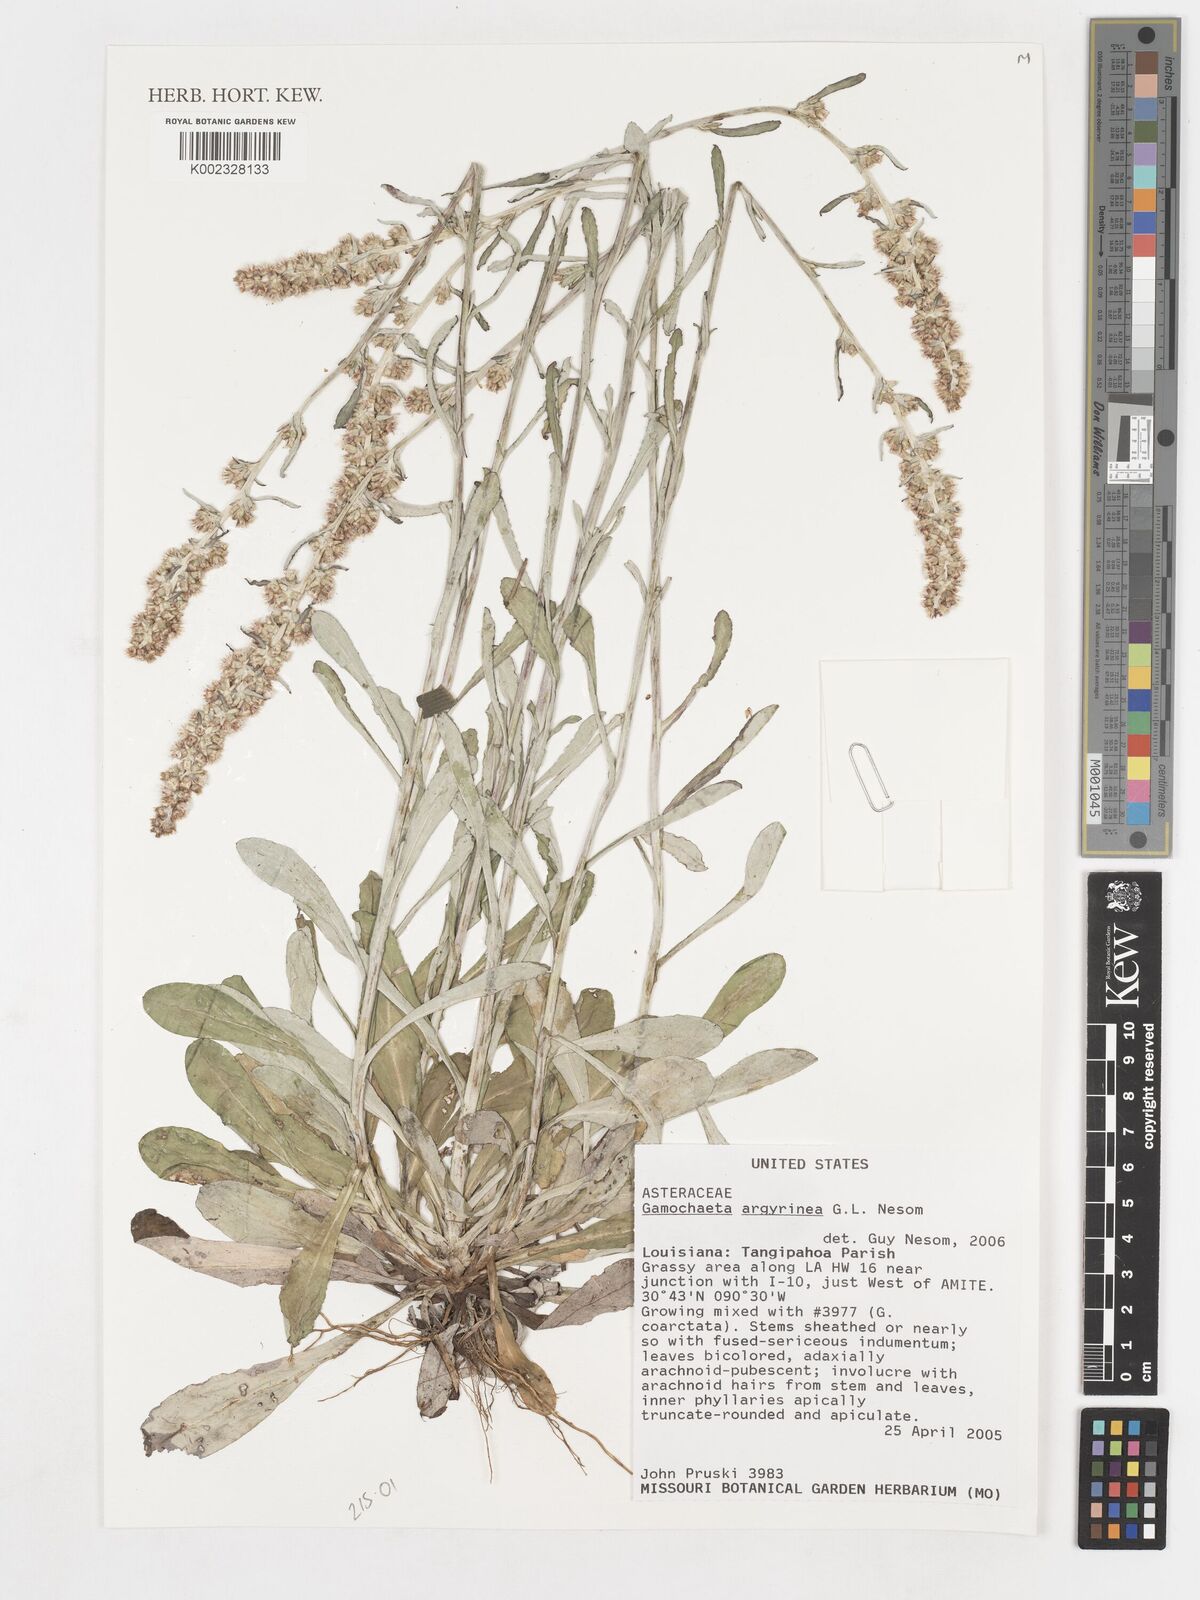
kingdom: Plantae
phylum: Tracheophyta
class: Magnoliopsida
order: Asterales
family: Asteraceae
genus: Gamochaeta
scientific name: Gamochaeta argyrinea
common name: Silvery cudweed
